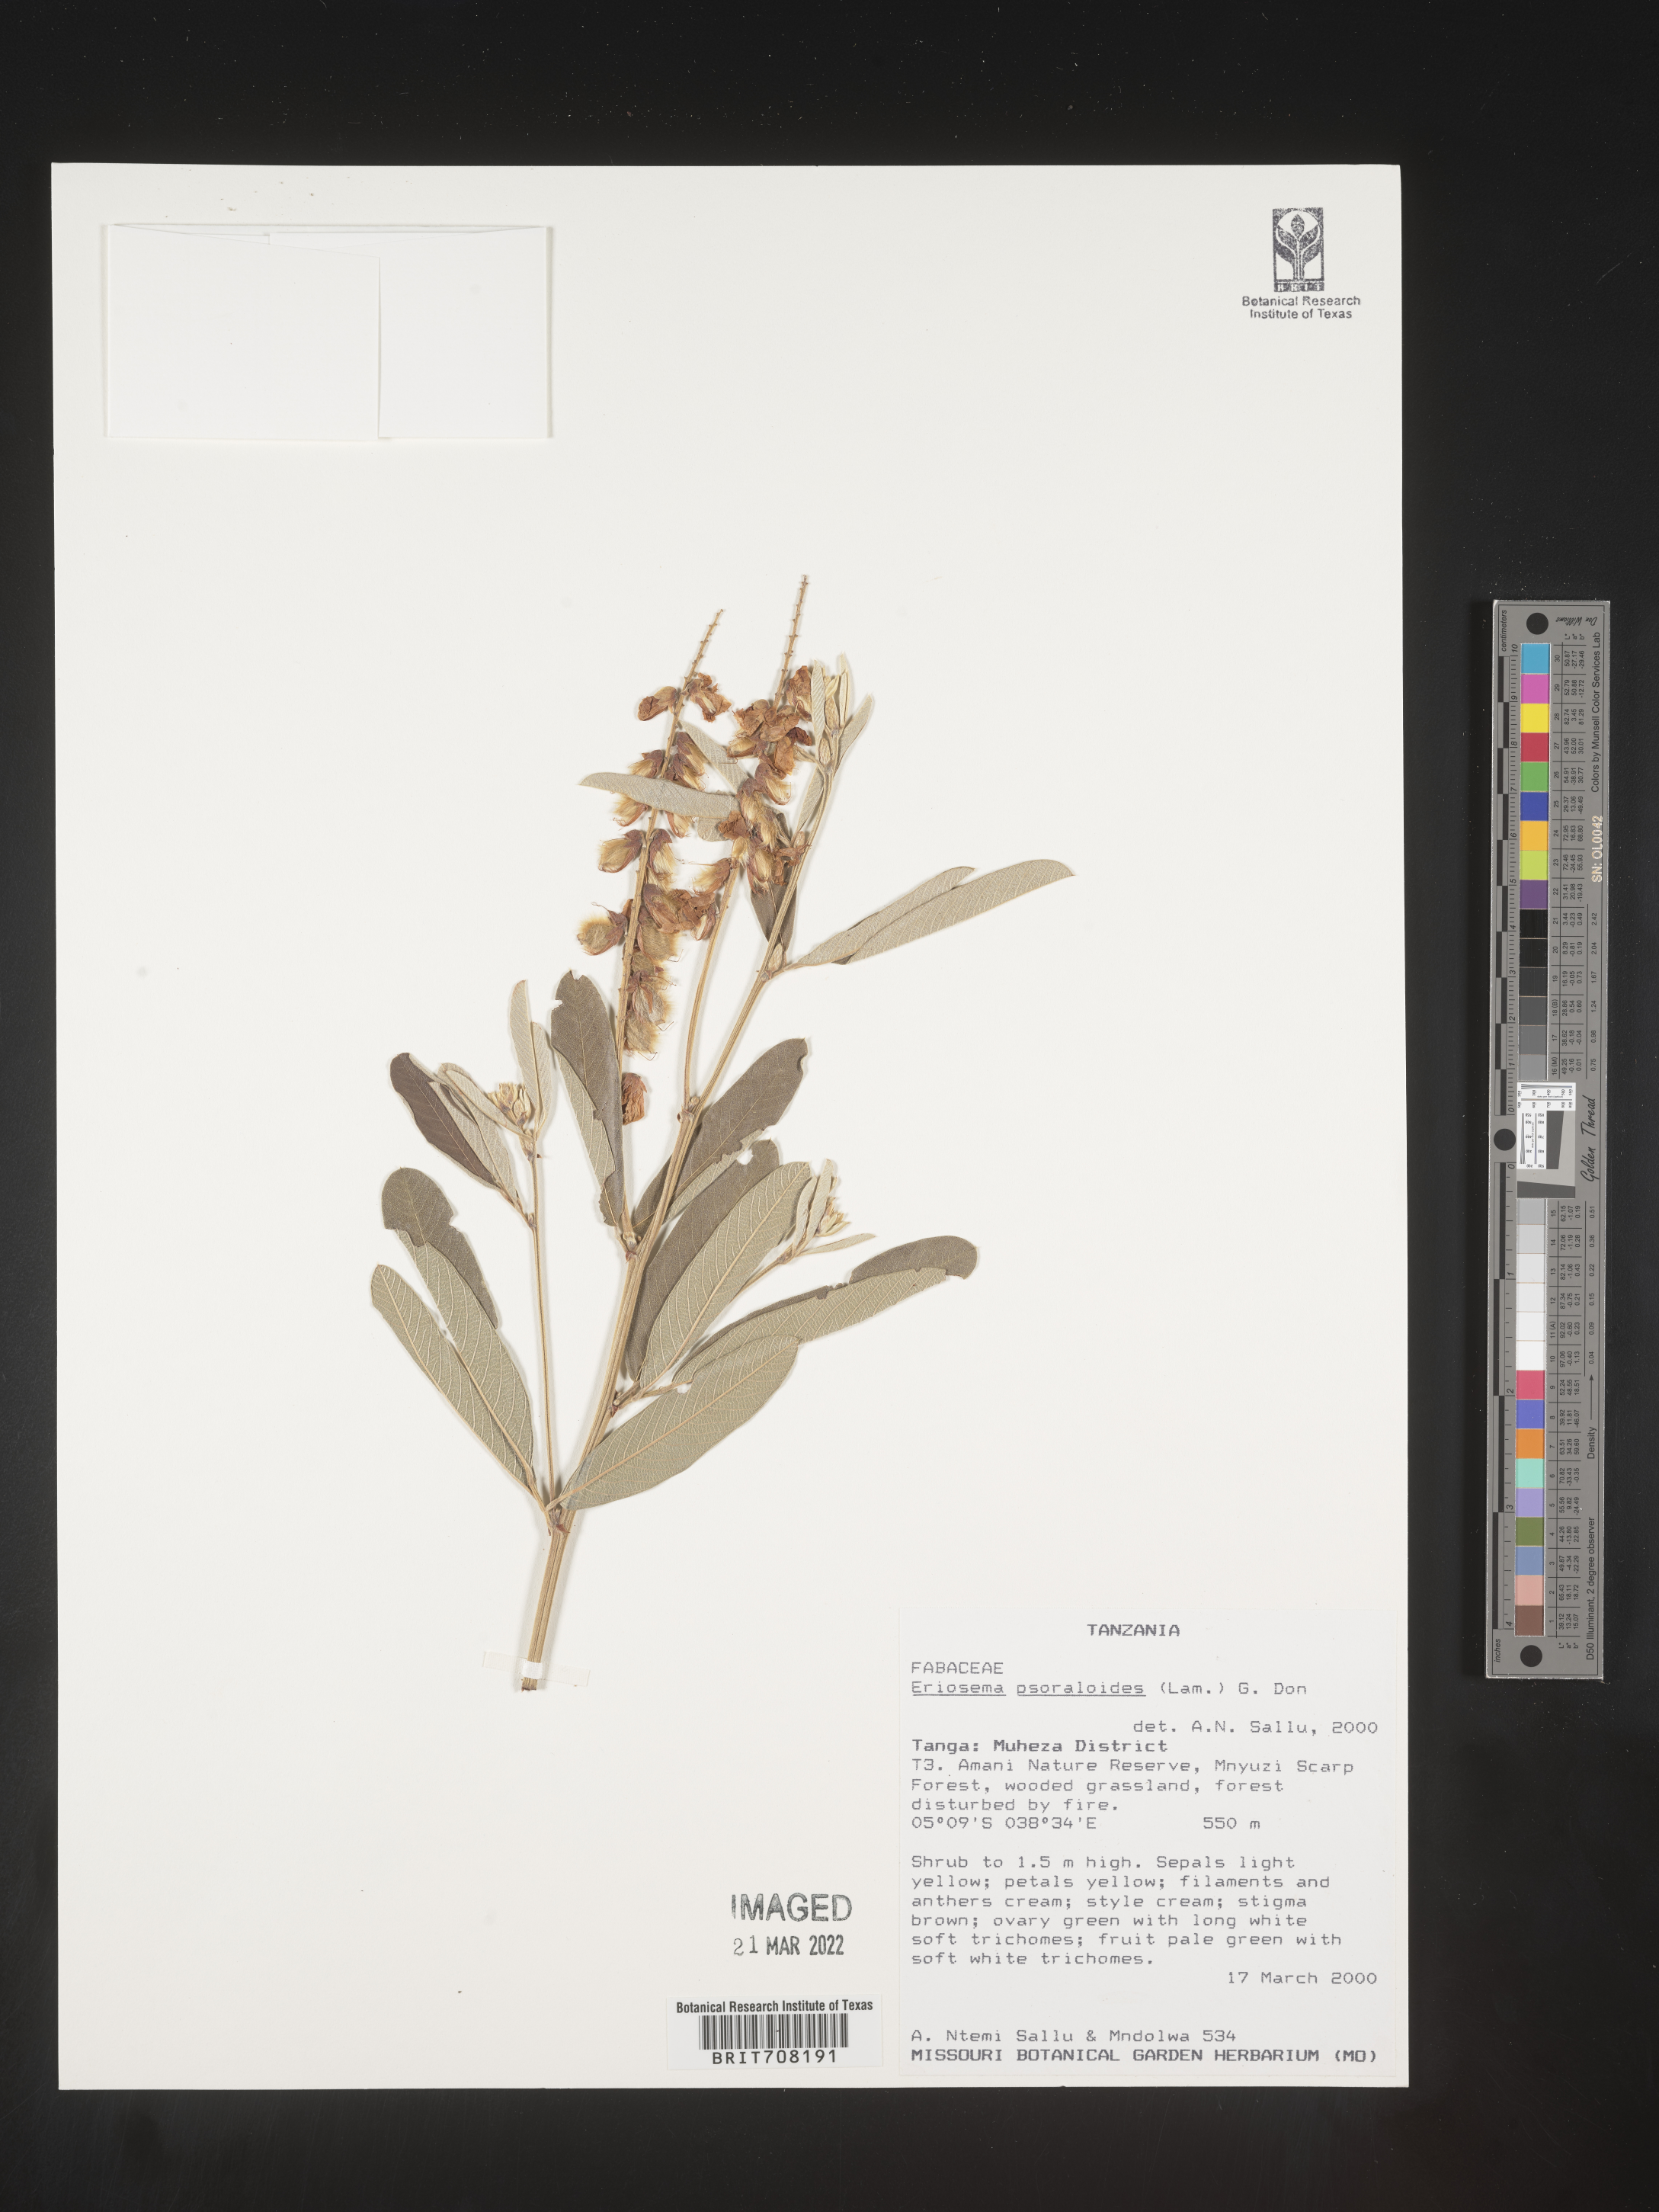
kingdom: Plantae
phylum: Tracheophyta
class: Magnoliopsida
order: Fabales
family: Fabaceae
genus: Eriosema
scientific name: Eriosema
